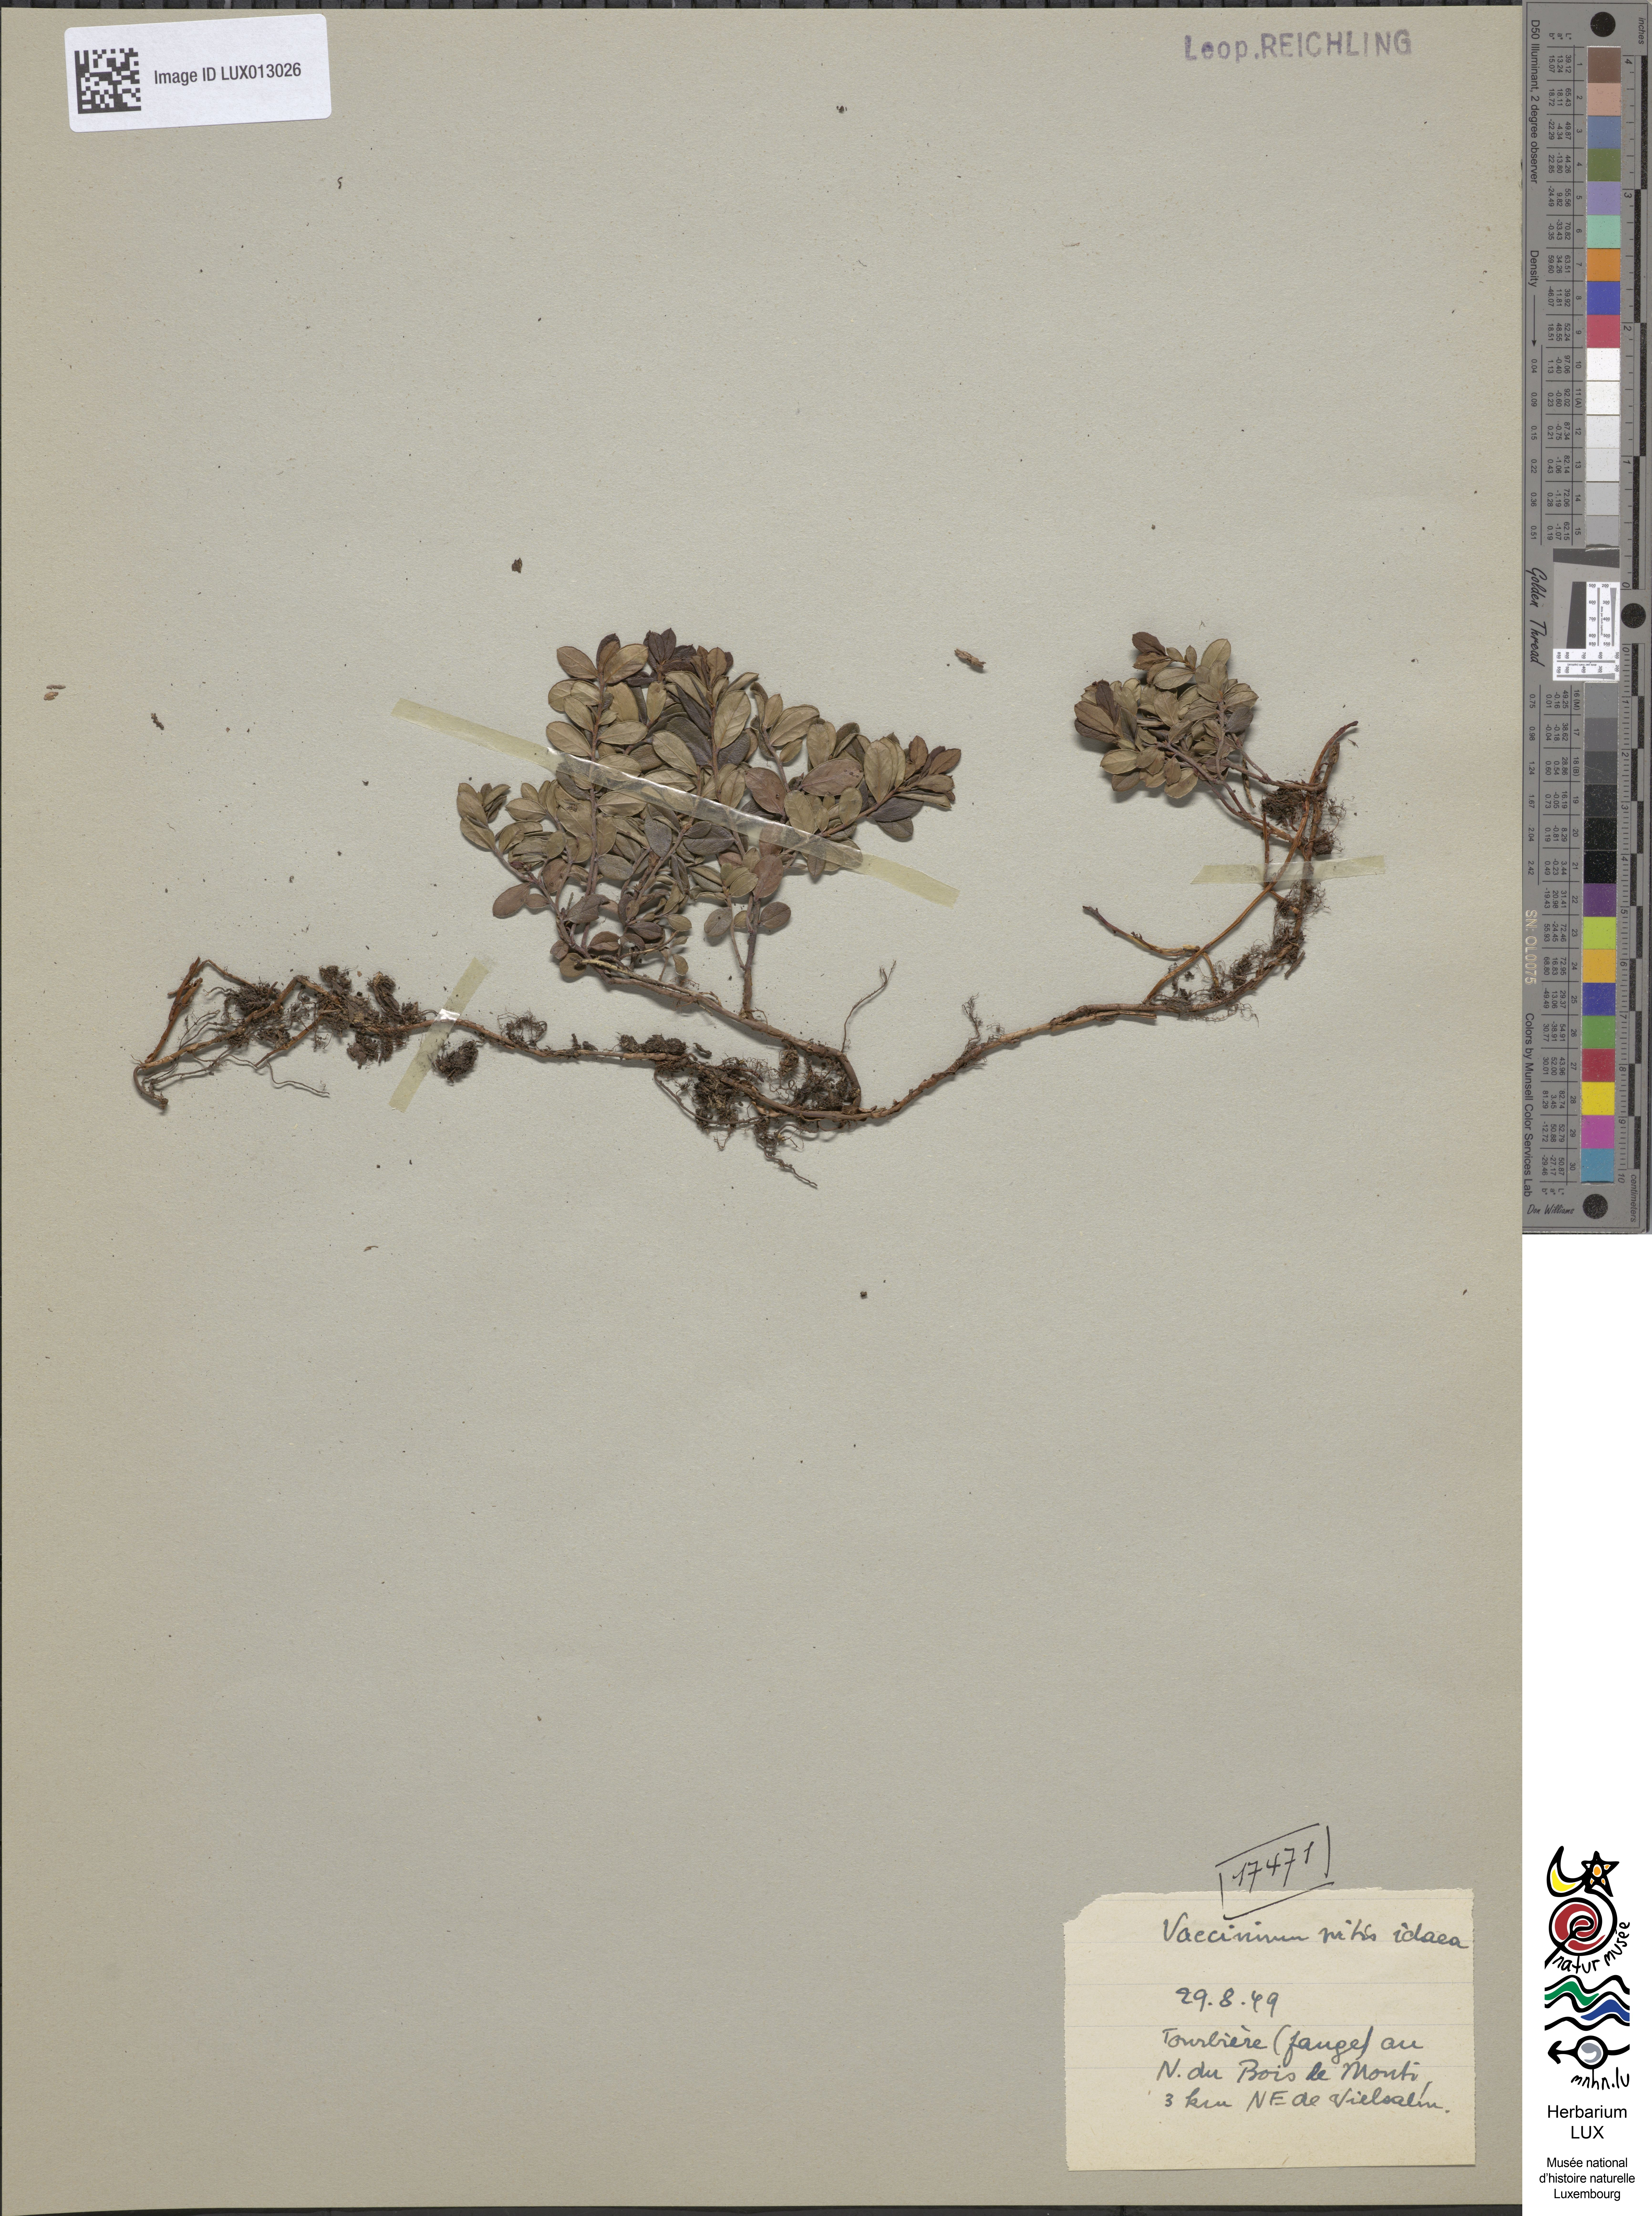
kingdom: Plantae
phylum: Tracheophyta
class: Magnoliopsida
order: Ericales
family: Ericaceae
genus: Vaccinium
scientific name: Vaccinium vitis-idaea
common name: Cowberry
